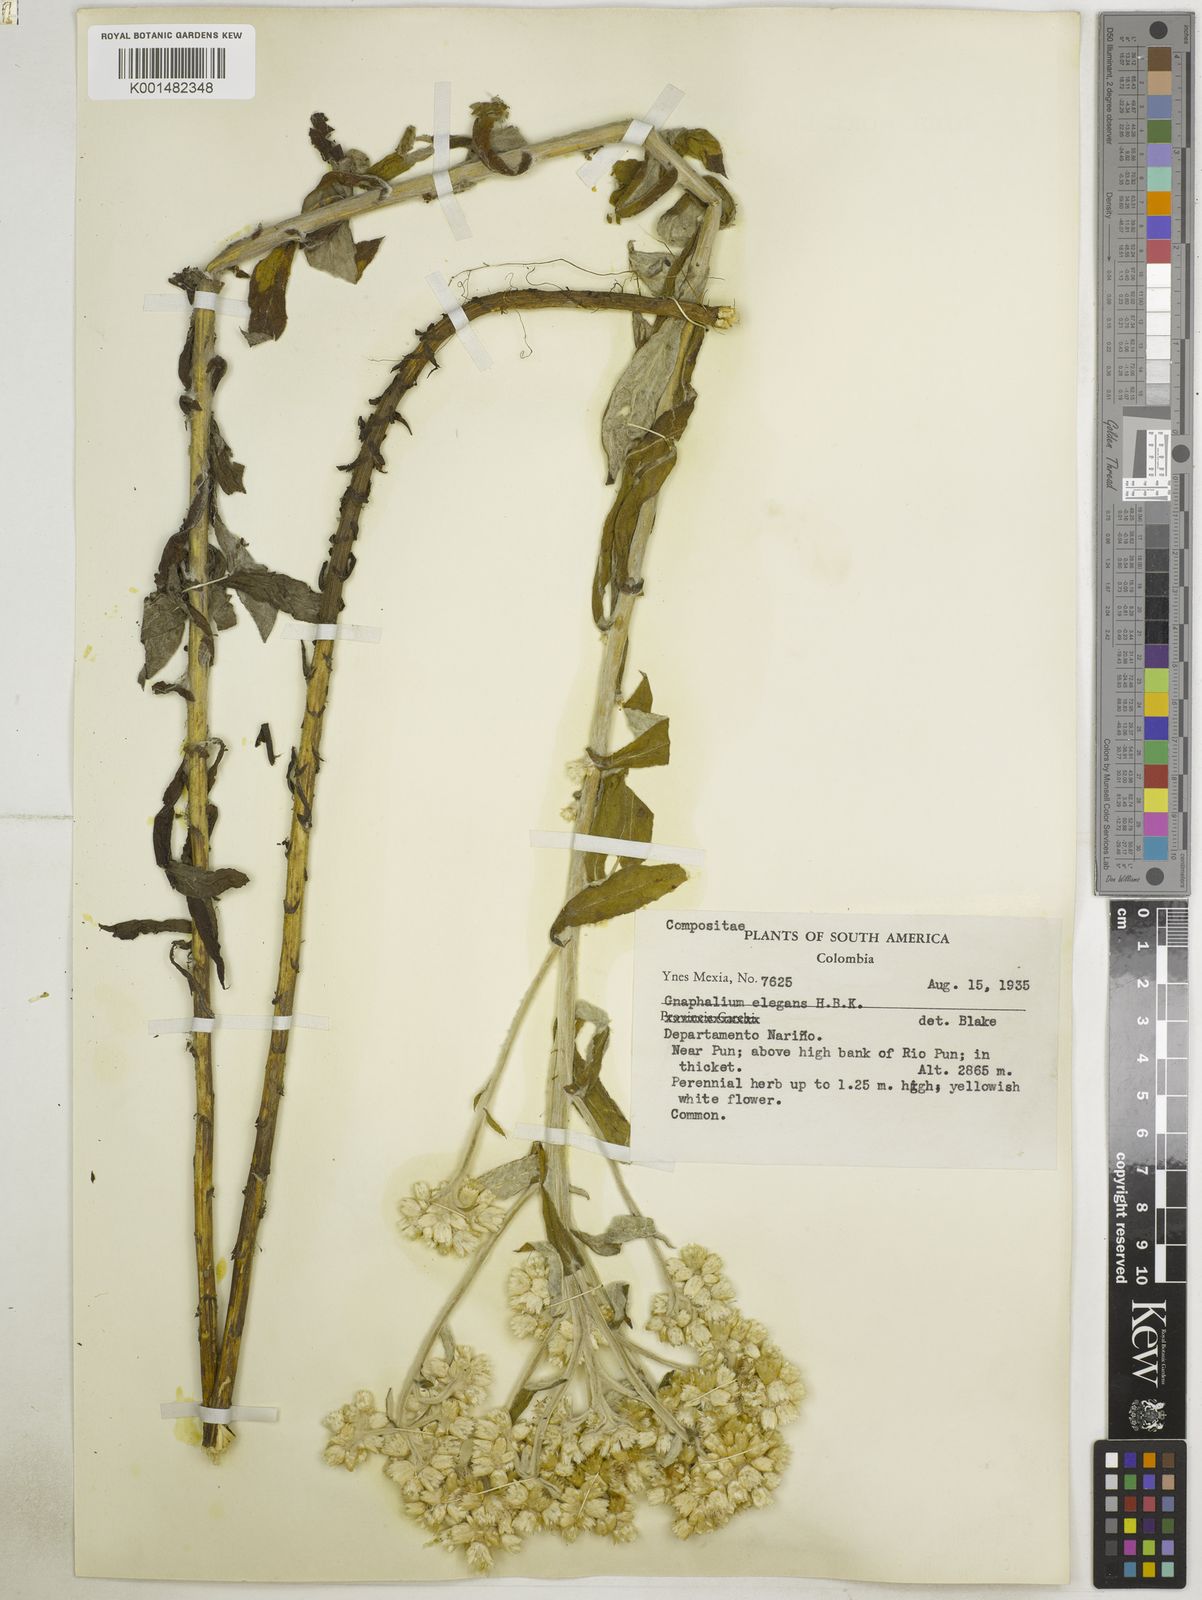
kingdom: Plantae
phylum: Tracheophyta
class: Magnoliopsida
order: Asterales
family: Asteraceae
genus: Pseudognaphalium
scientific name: Pseudognaphalium domingense
